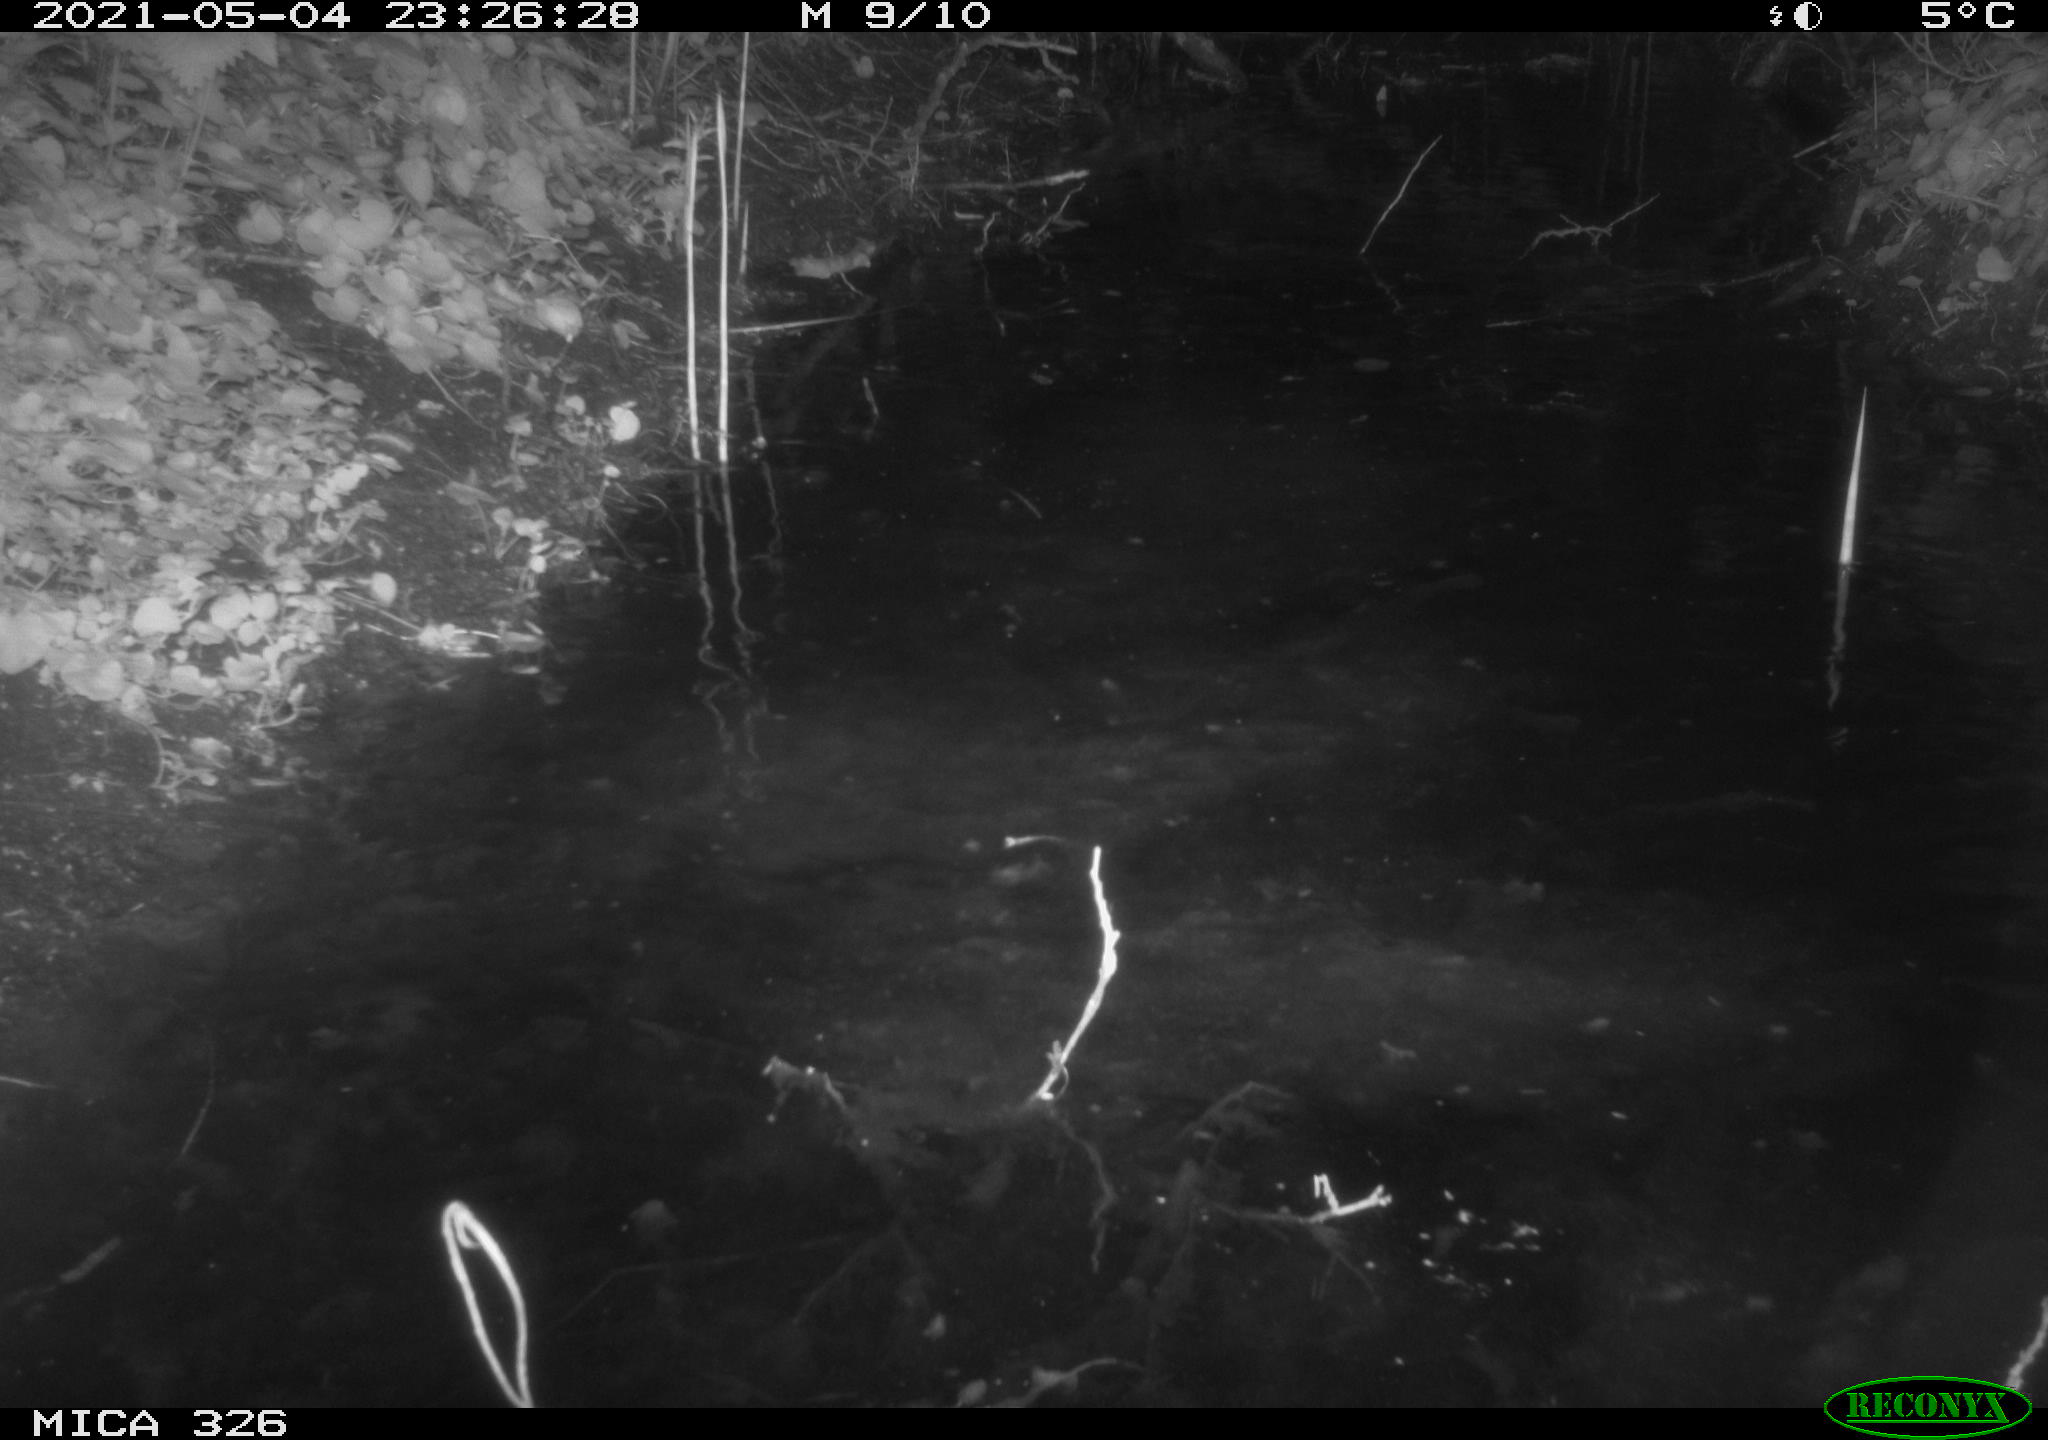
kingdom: Animalia
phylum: Chordata
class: Mammalia
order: Rodentia
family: Myocastoridae
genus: Myocastor
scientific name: Myocastor coypus
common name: Coypu
